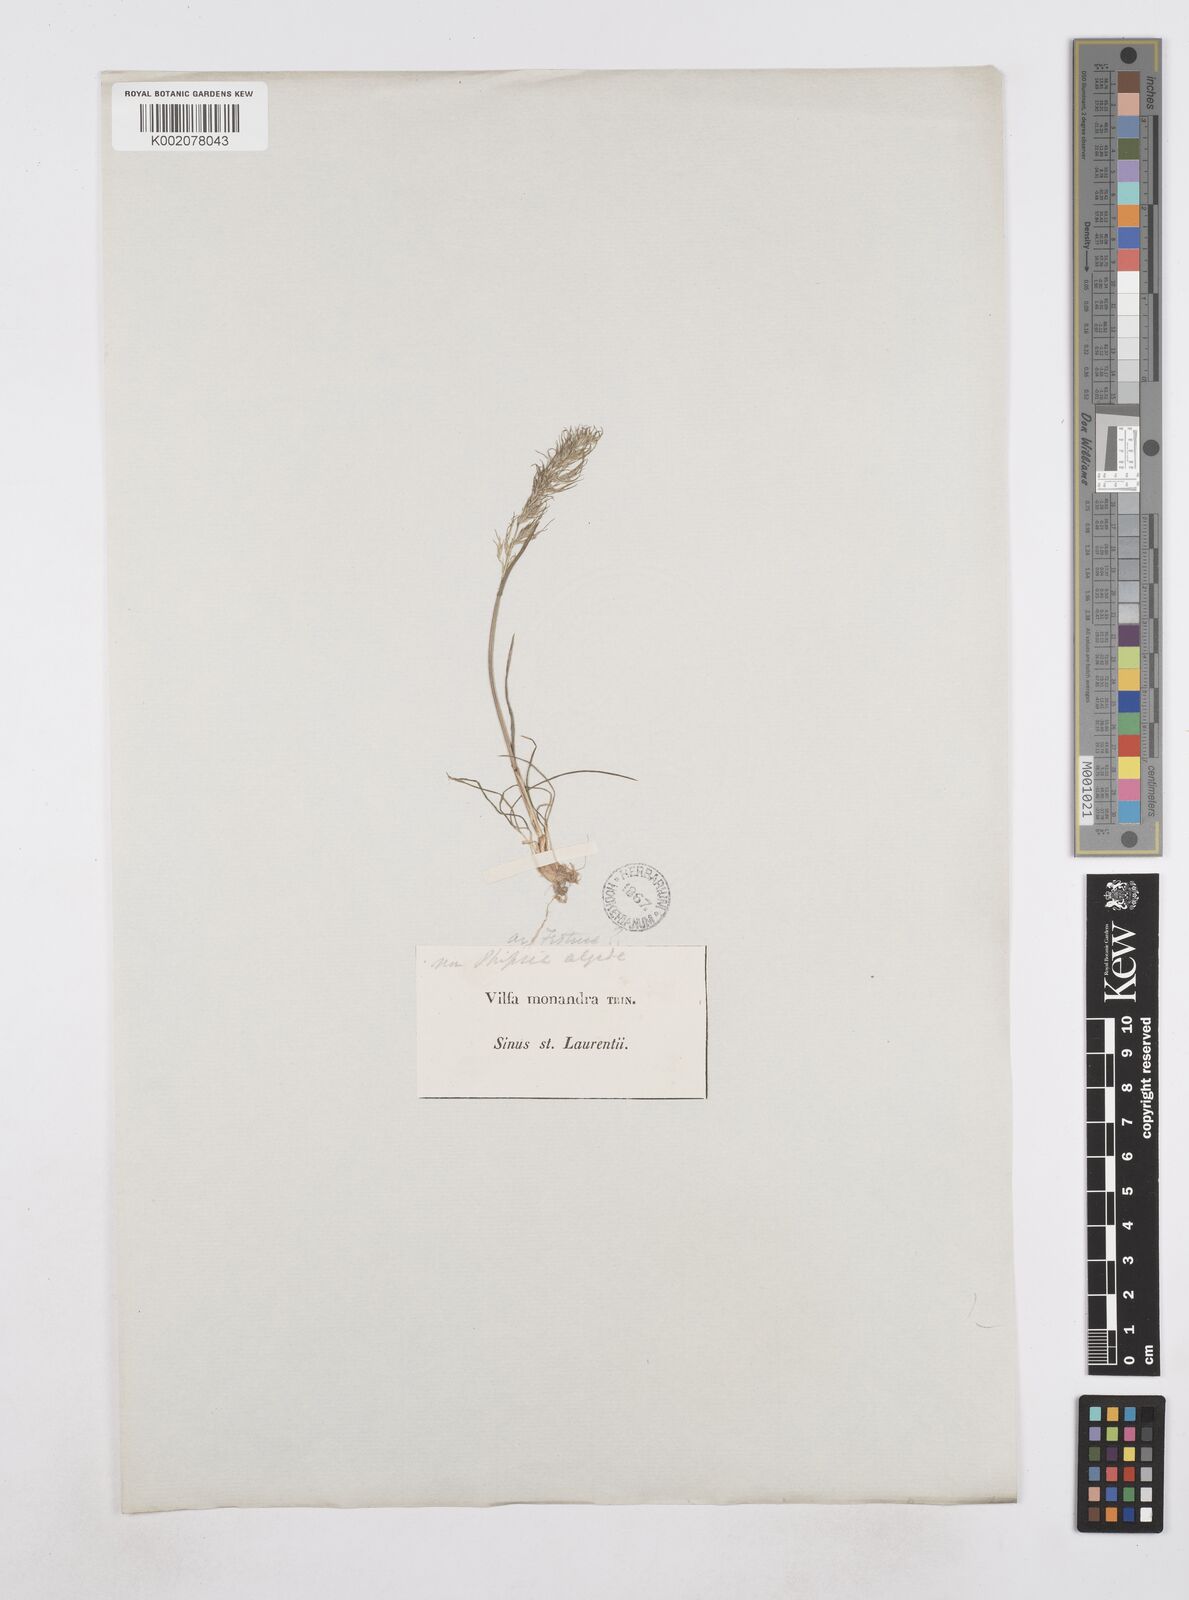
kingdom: Plantae
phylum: Tracheophyta
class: Liliopsida
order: Poales
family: Poaceae
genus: Poa
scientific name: Poa
